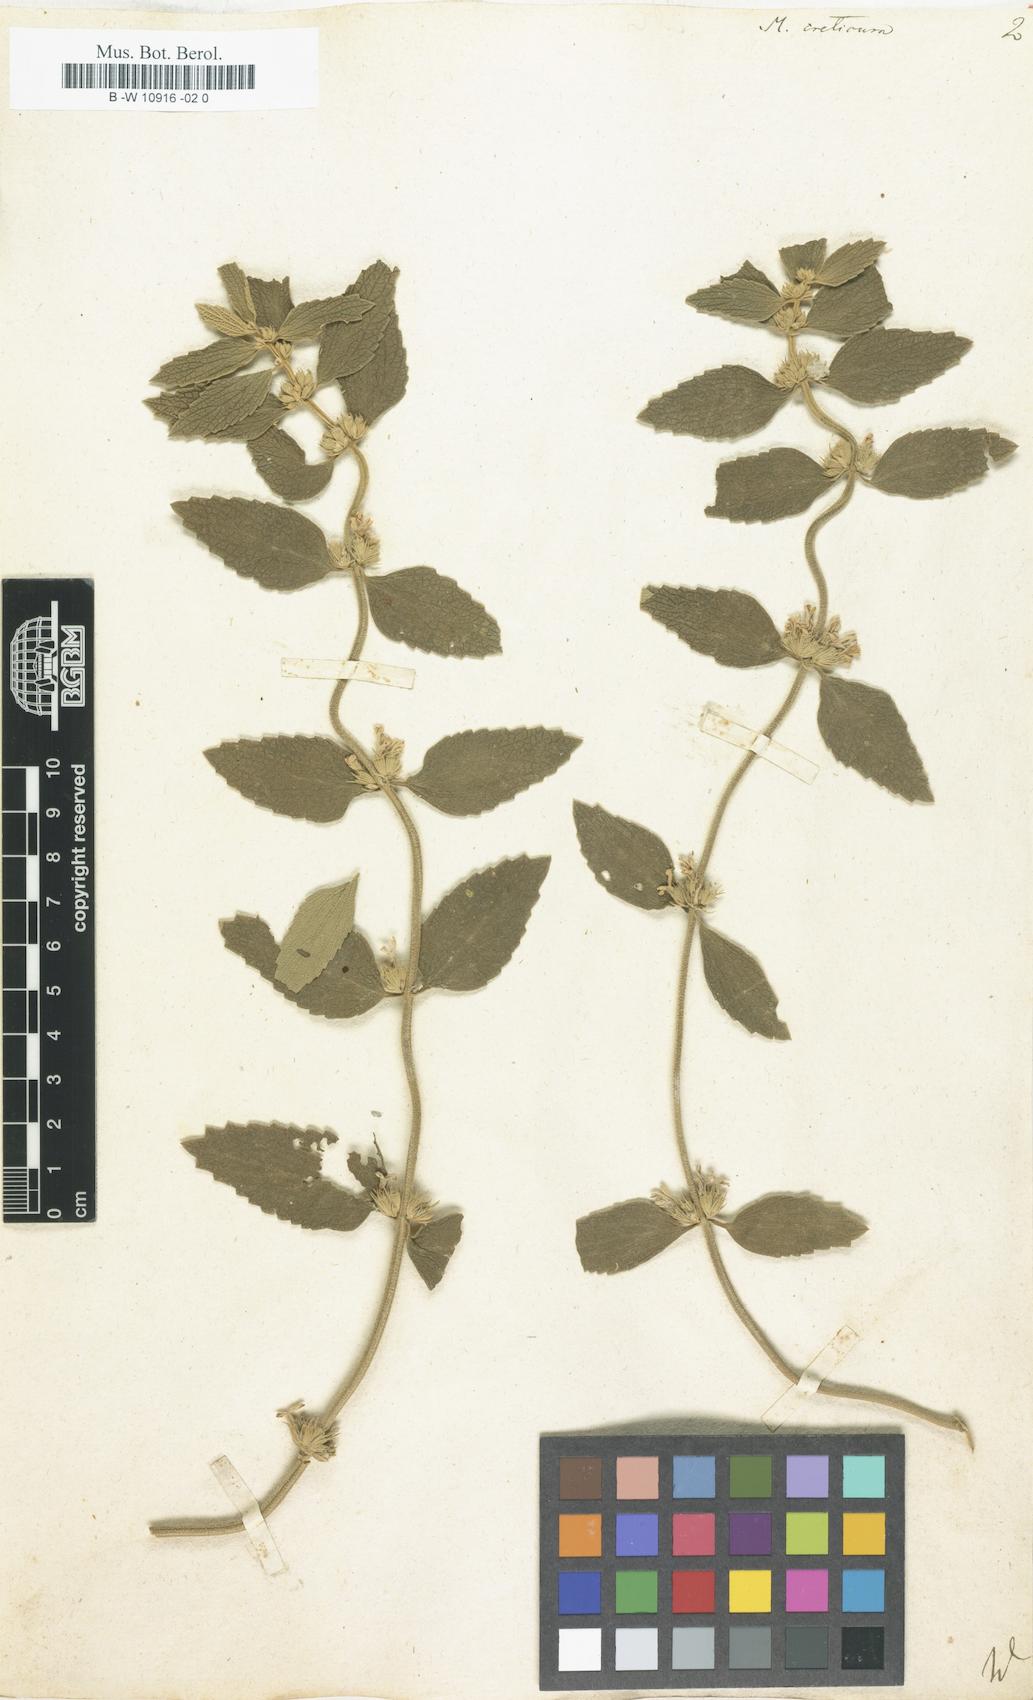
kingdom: Plantae
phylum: Tracheophyta
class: Magnoliopsida
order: Lamiales
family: Lamiaceae
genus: Marrubium
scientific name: Marrubium peregrinum
